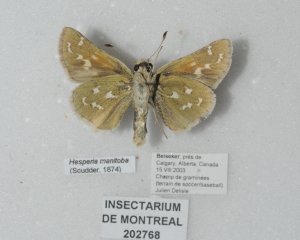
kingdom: Animalia
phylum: Arthropoda
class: Insecta
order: Lepidoptera
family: Hesperiidae
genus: Hesperia
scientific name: Hesperia comma
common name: Common Branded Skipper
